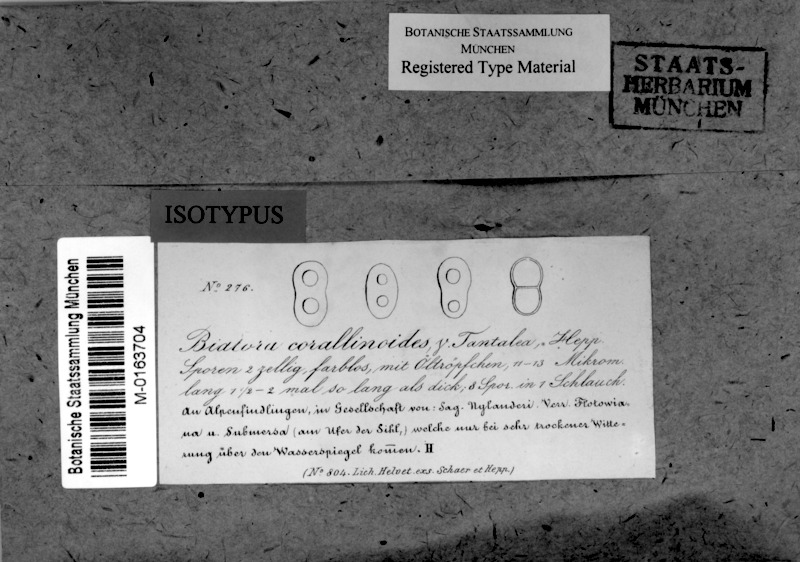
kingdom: Fungi
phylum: Ascomycota
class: Lecanoromycetes
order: Peltigerales
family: Placynthiaceae
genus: Placynthium
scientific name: Placynthium tantaleum
